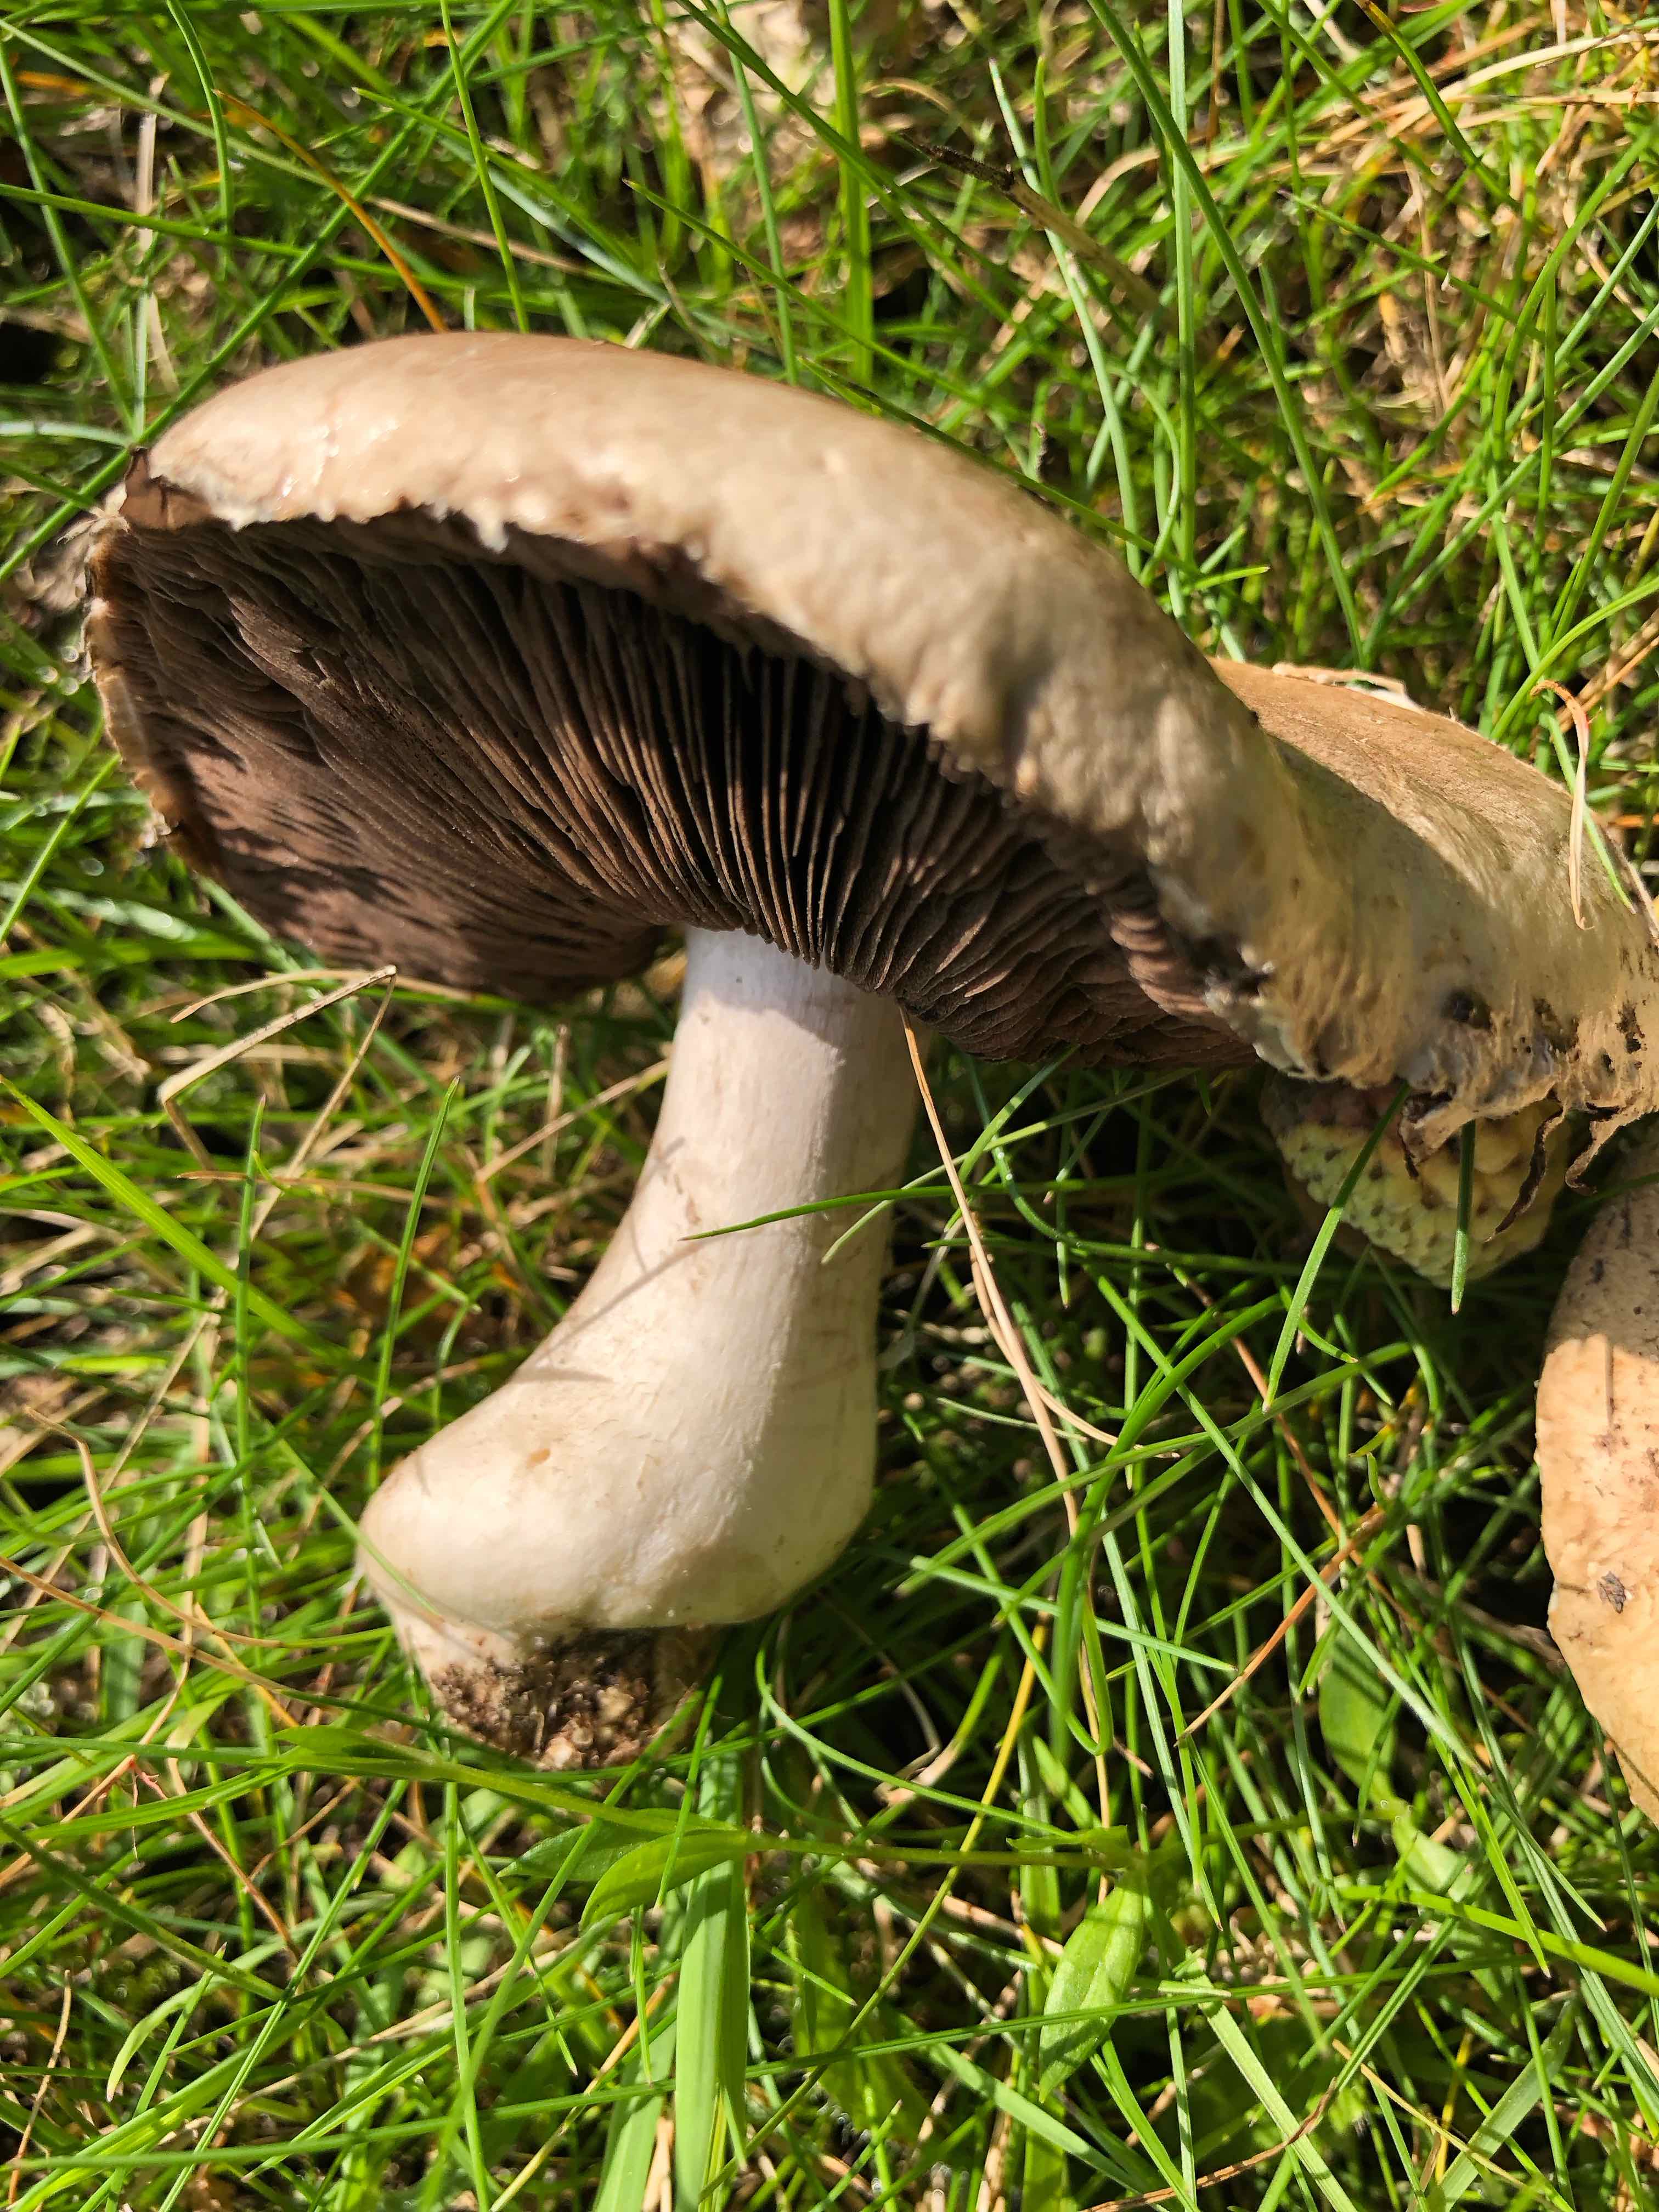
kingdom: Fungi
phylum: Basidiomycota
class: Agaricomycetes
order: Agaricales
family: Agaricaceae
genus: Agaricus
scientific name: Agaricus
